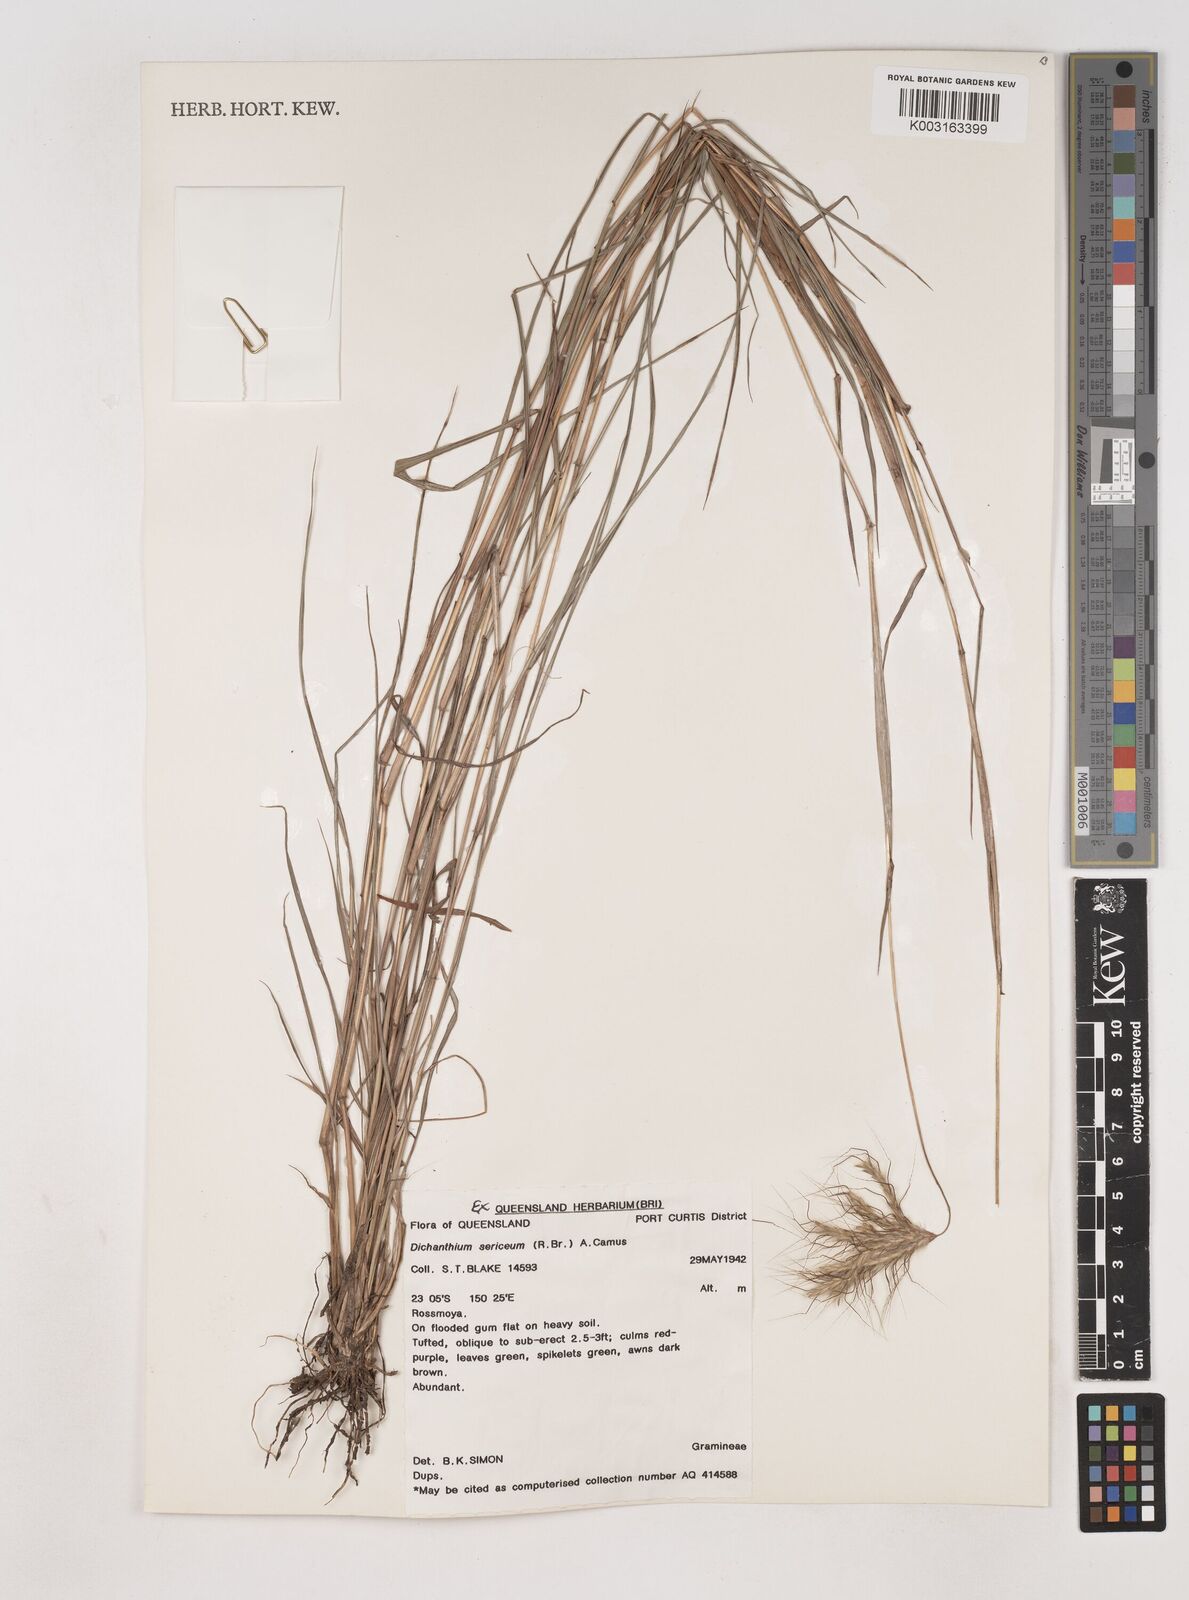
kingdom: Plantae
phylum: Tracheophyta
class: Liliopsida
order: Poales
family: Poaceae
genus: Dichanthium
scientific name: Dichanthium sericeum
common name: Silky bluestem
